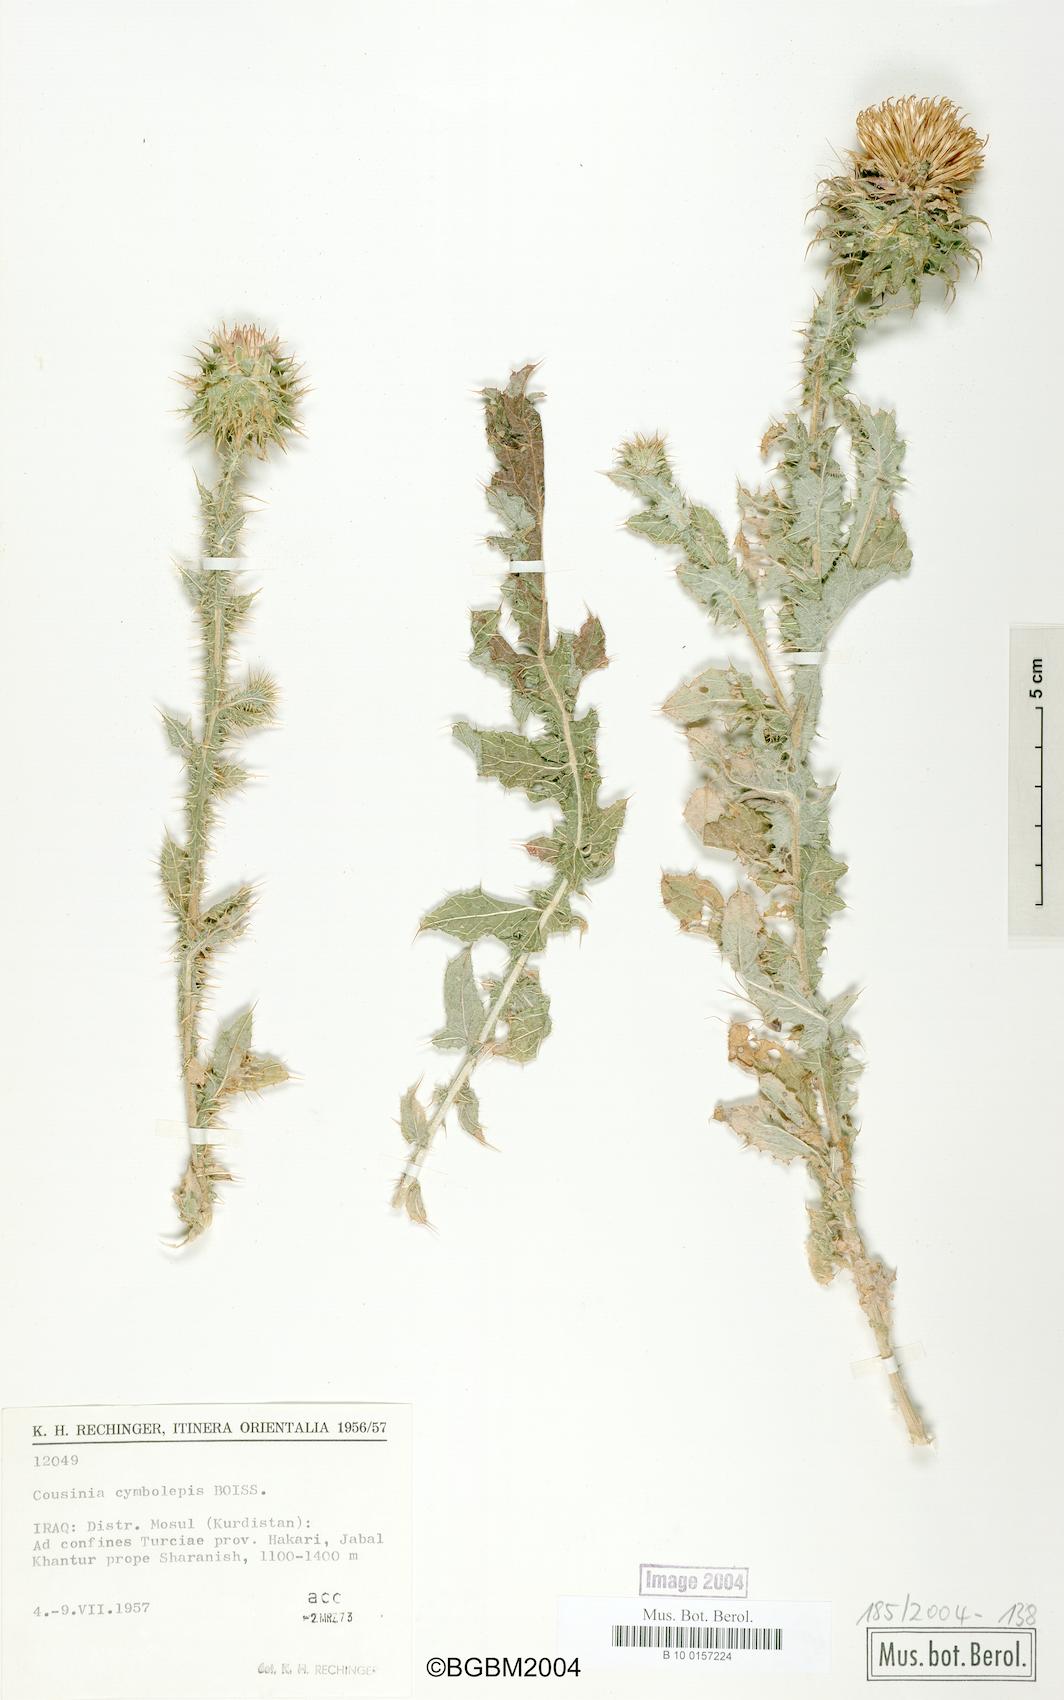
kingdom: Plantae
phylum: Tracheophyta
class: Magnoliopsida
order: Asterales
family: Asteraceae
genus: Cousinia
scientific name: Cousinia odontolepis
